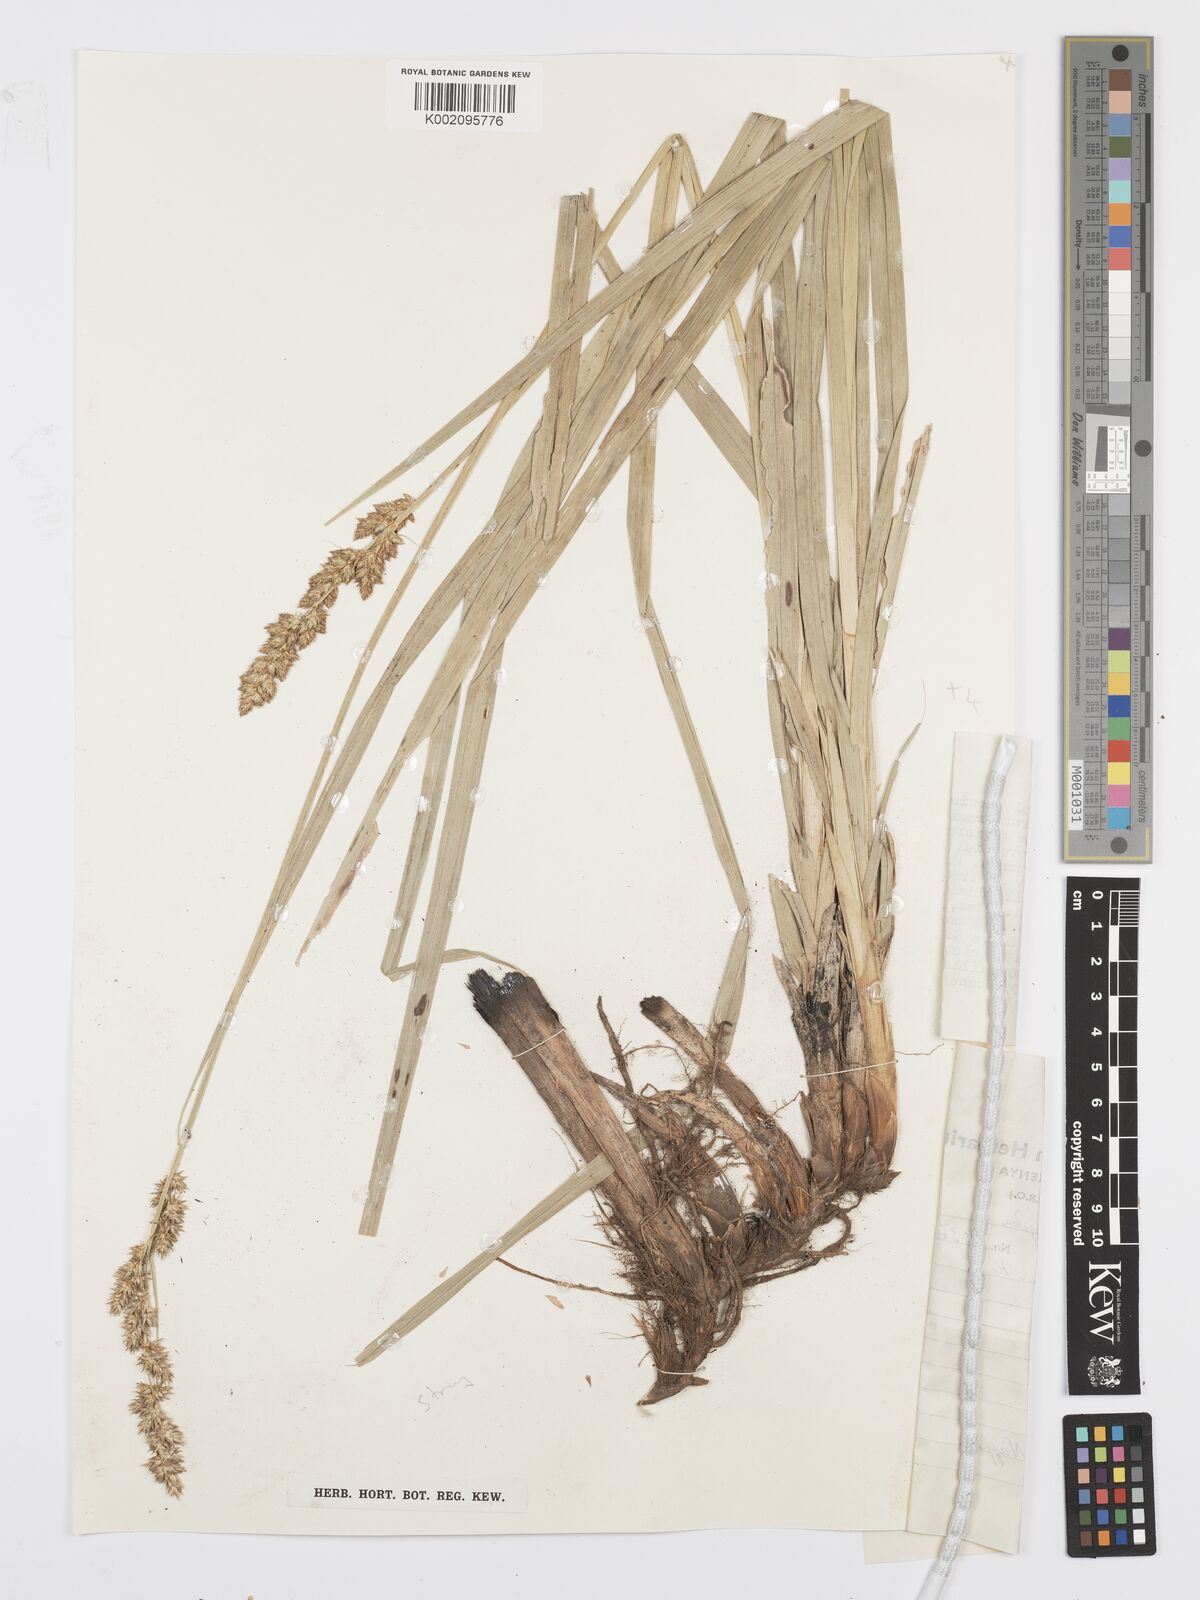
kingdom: Plantae
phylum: Tracheophyta
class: Liliopsida
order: Poales
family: Cyperaceae
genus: Carex
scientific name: Carex lycurus
